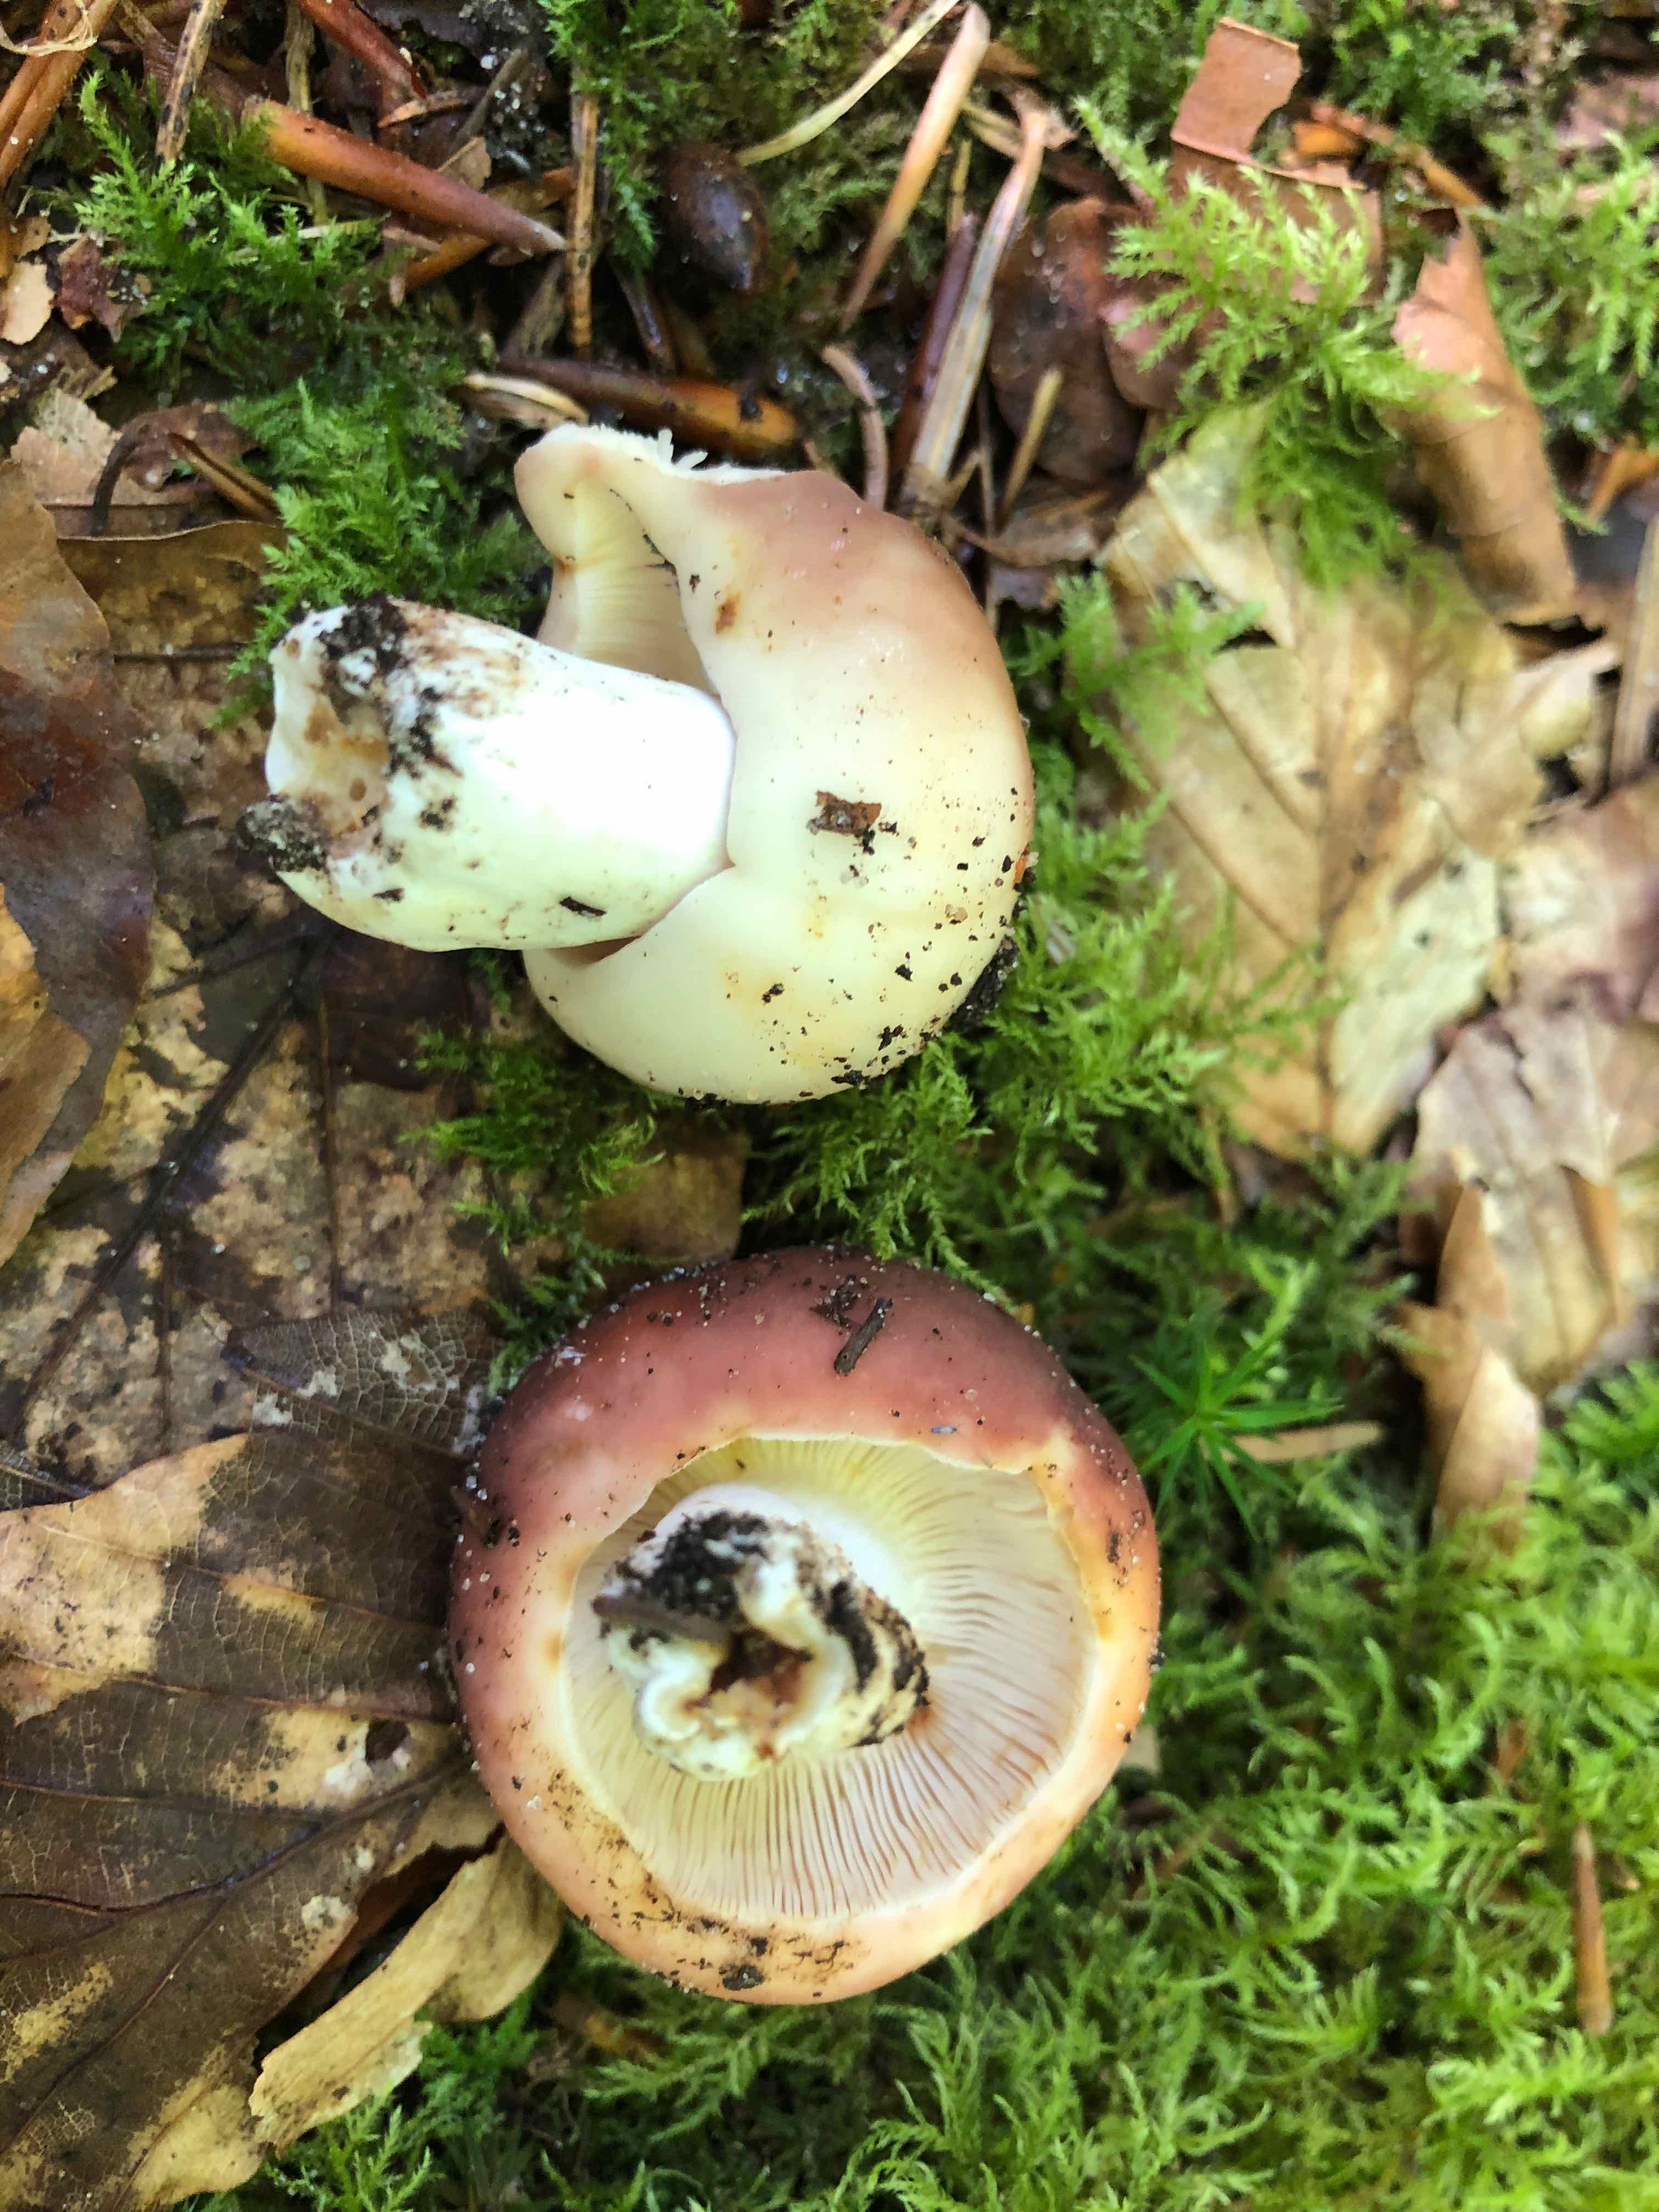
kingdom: Fungi
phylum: Basidiomycota
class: Agaricomycetes
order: Russulales
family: Russulaceae
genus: Russula
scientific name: Russula vesca
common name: spiselig skørhat
